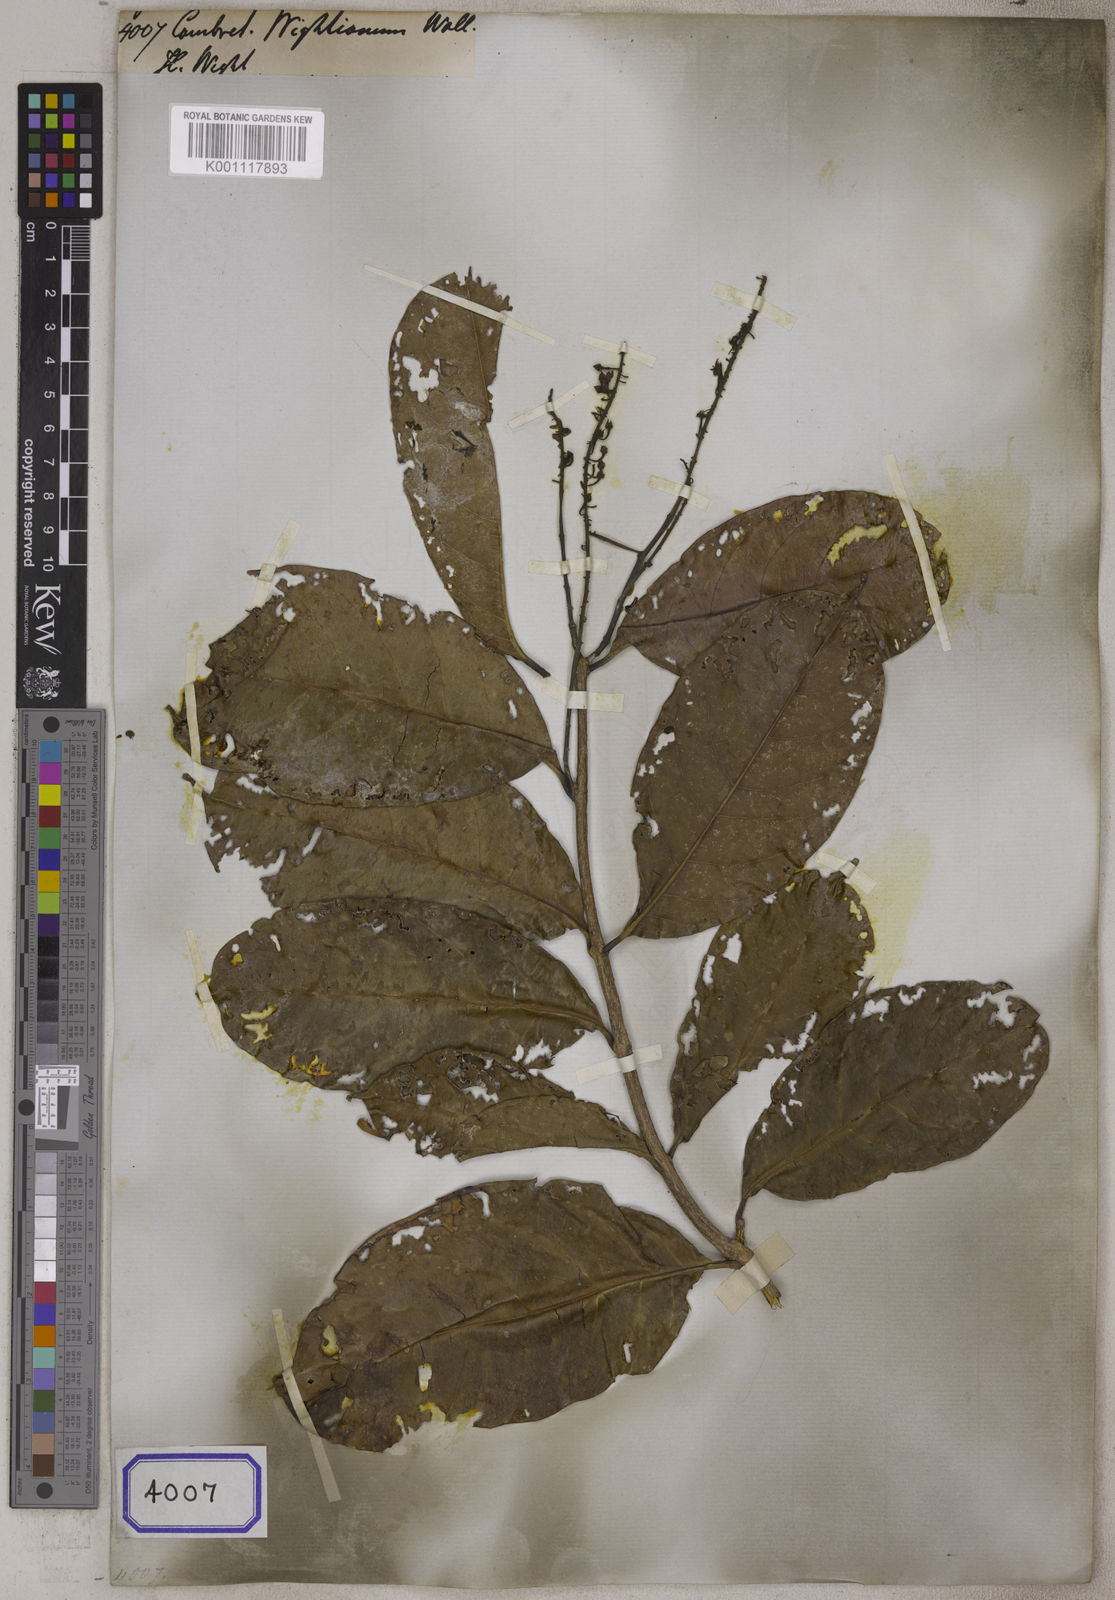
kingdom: Plantae
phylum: Tracheophyta
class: Magnoliopsida
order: Myrtales
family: Combretaceae
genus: Combretum
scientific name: Combretum latifolium
